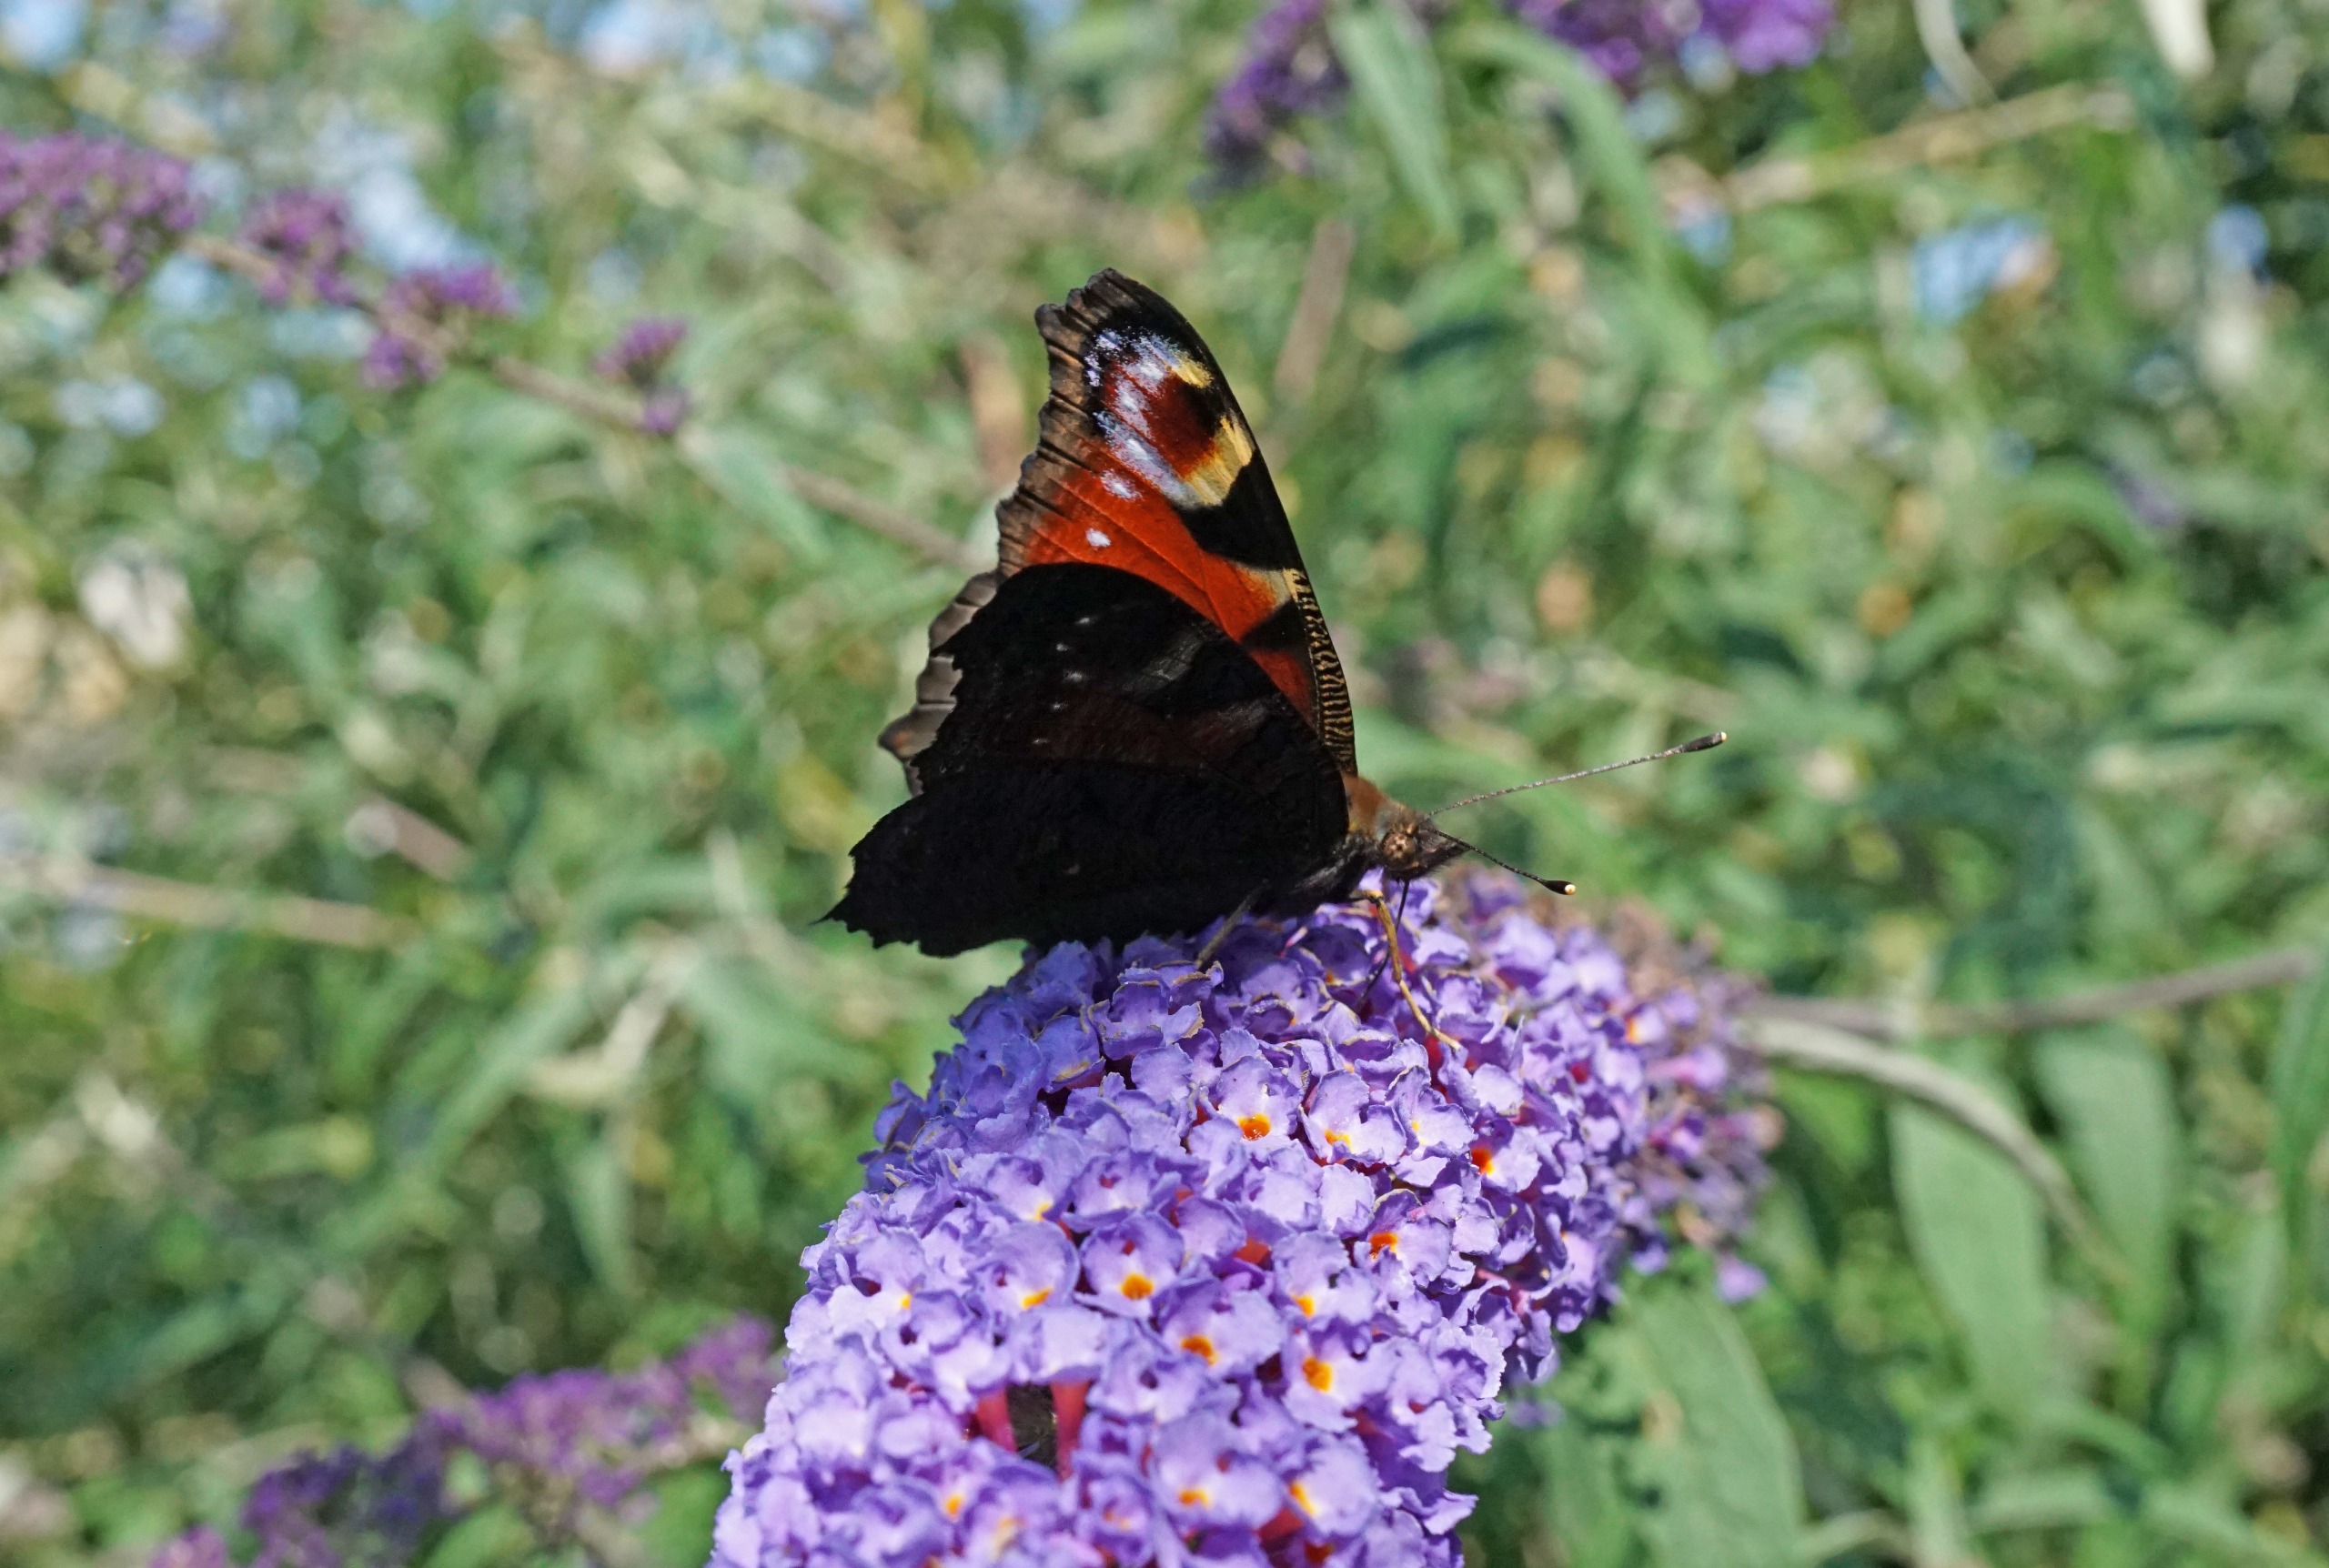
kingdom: Animalia
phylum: Arthropoda
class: Insecta
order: Lepidoptera
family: Nymphalidae
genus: Aglais
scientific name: Aglais io
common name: Dagpåfugleøje
